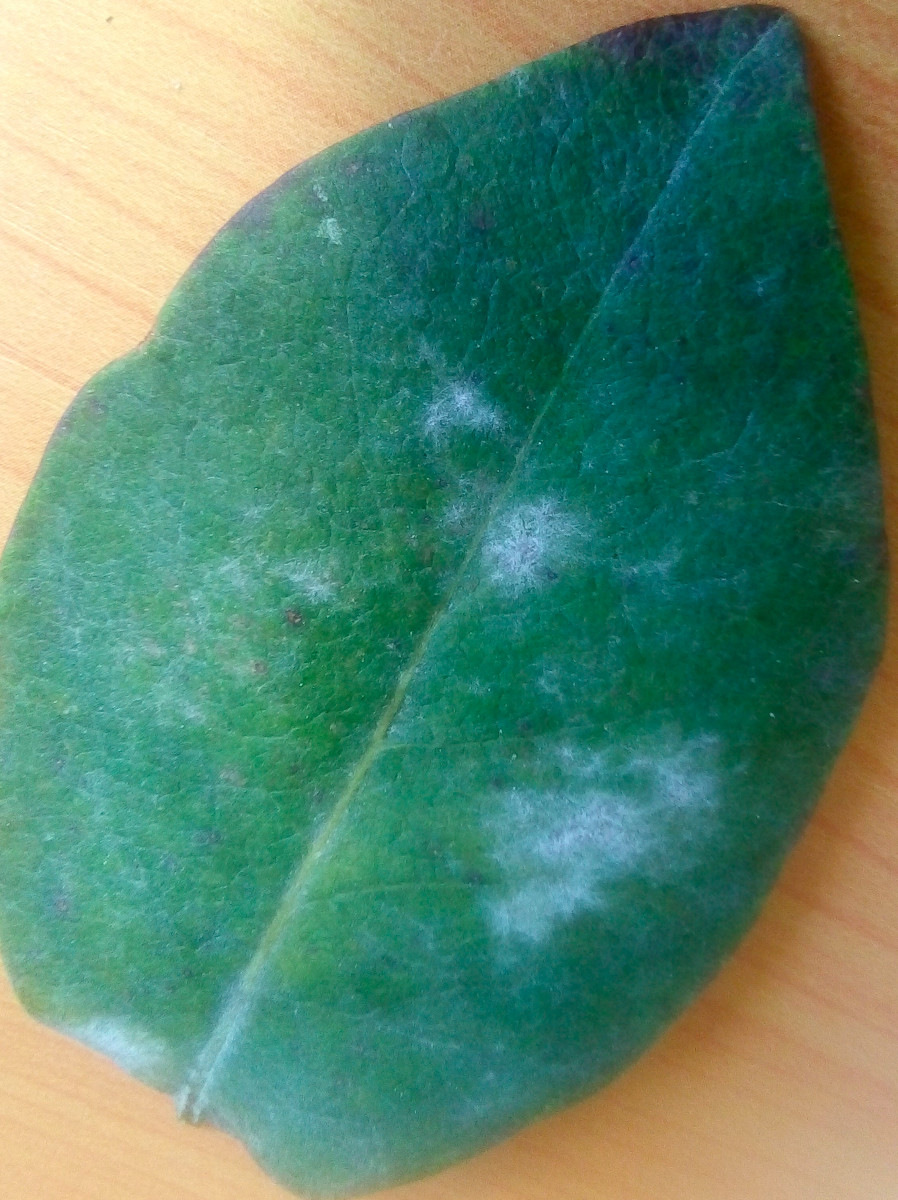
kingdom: Fungi
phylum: Ascomycota
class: Leotiomycetes
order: Helotiales
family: Erysiphaceae
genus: Erysiphe
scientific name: Erysiphe lonicerae
